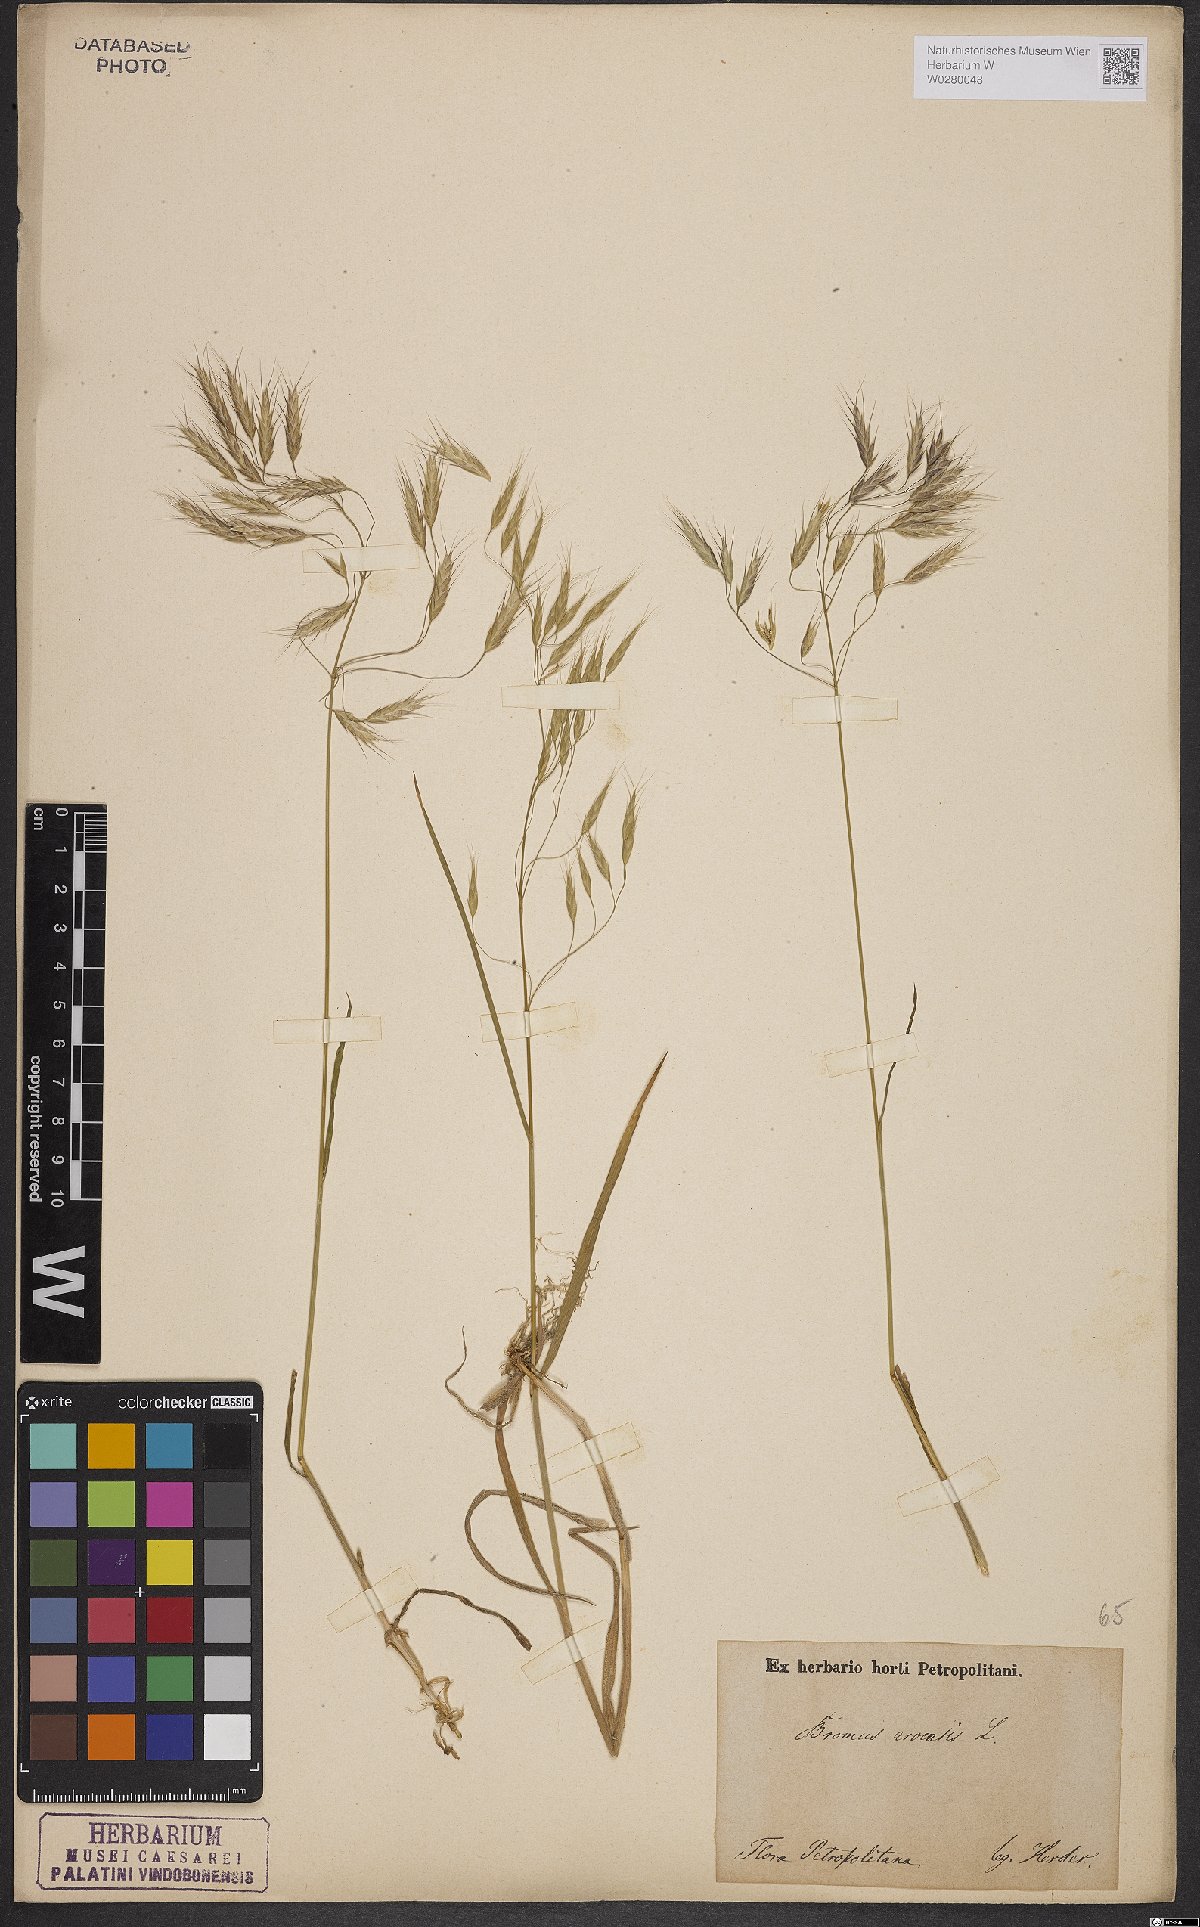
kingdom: Plantae
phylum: Tracheophyta
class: Liliopsida
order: Poales
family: Poaceae
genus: Bromus
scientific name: Bromus arvensis
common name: Field brome
